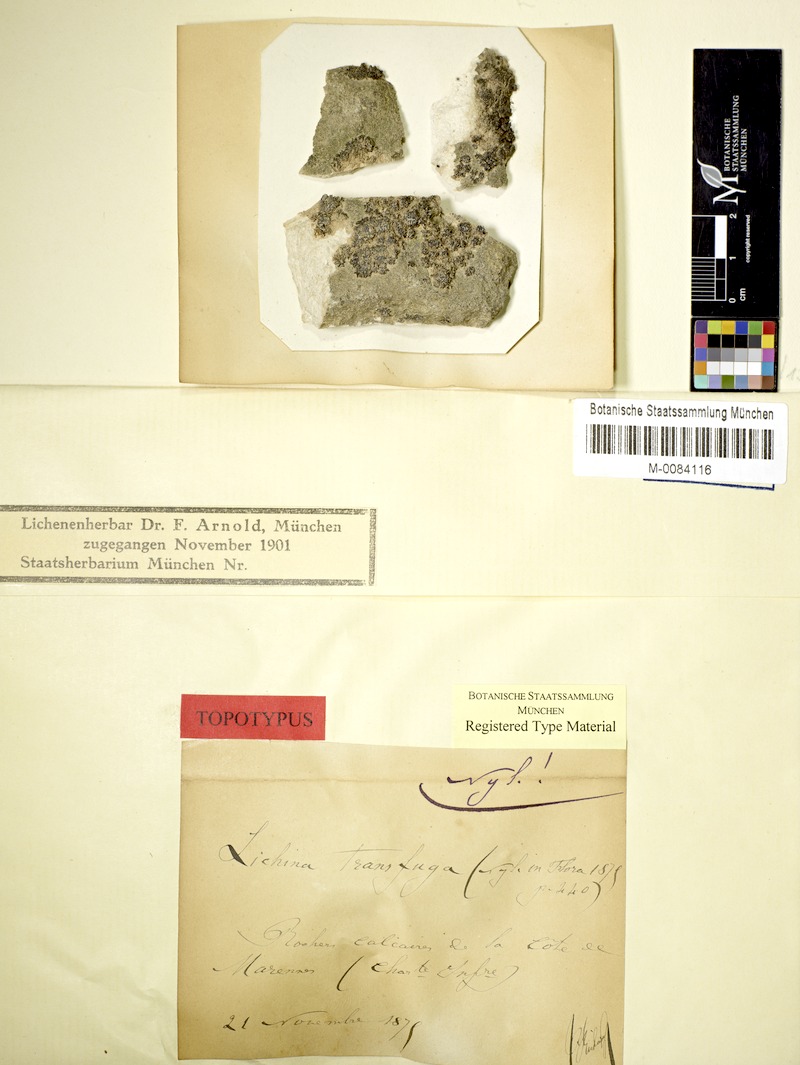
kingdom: Fungi
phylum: Ascomycota
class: Lichinomycetes
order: Lichinales
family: Lichinaceae
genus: Lichina
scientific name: Lichina confinis
